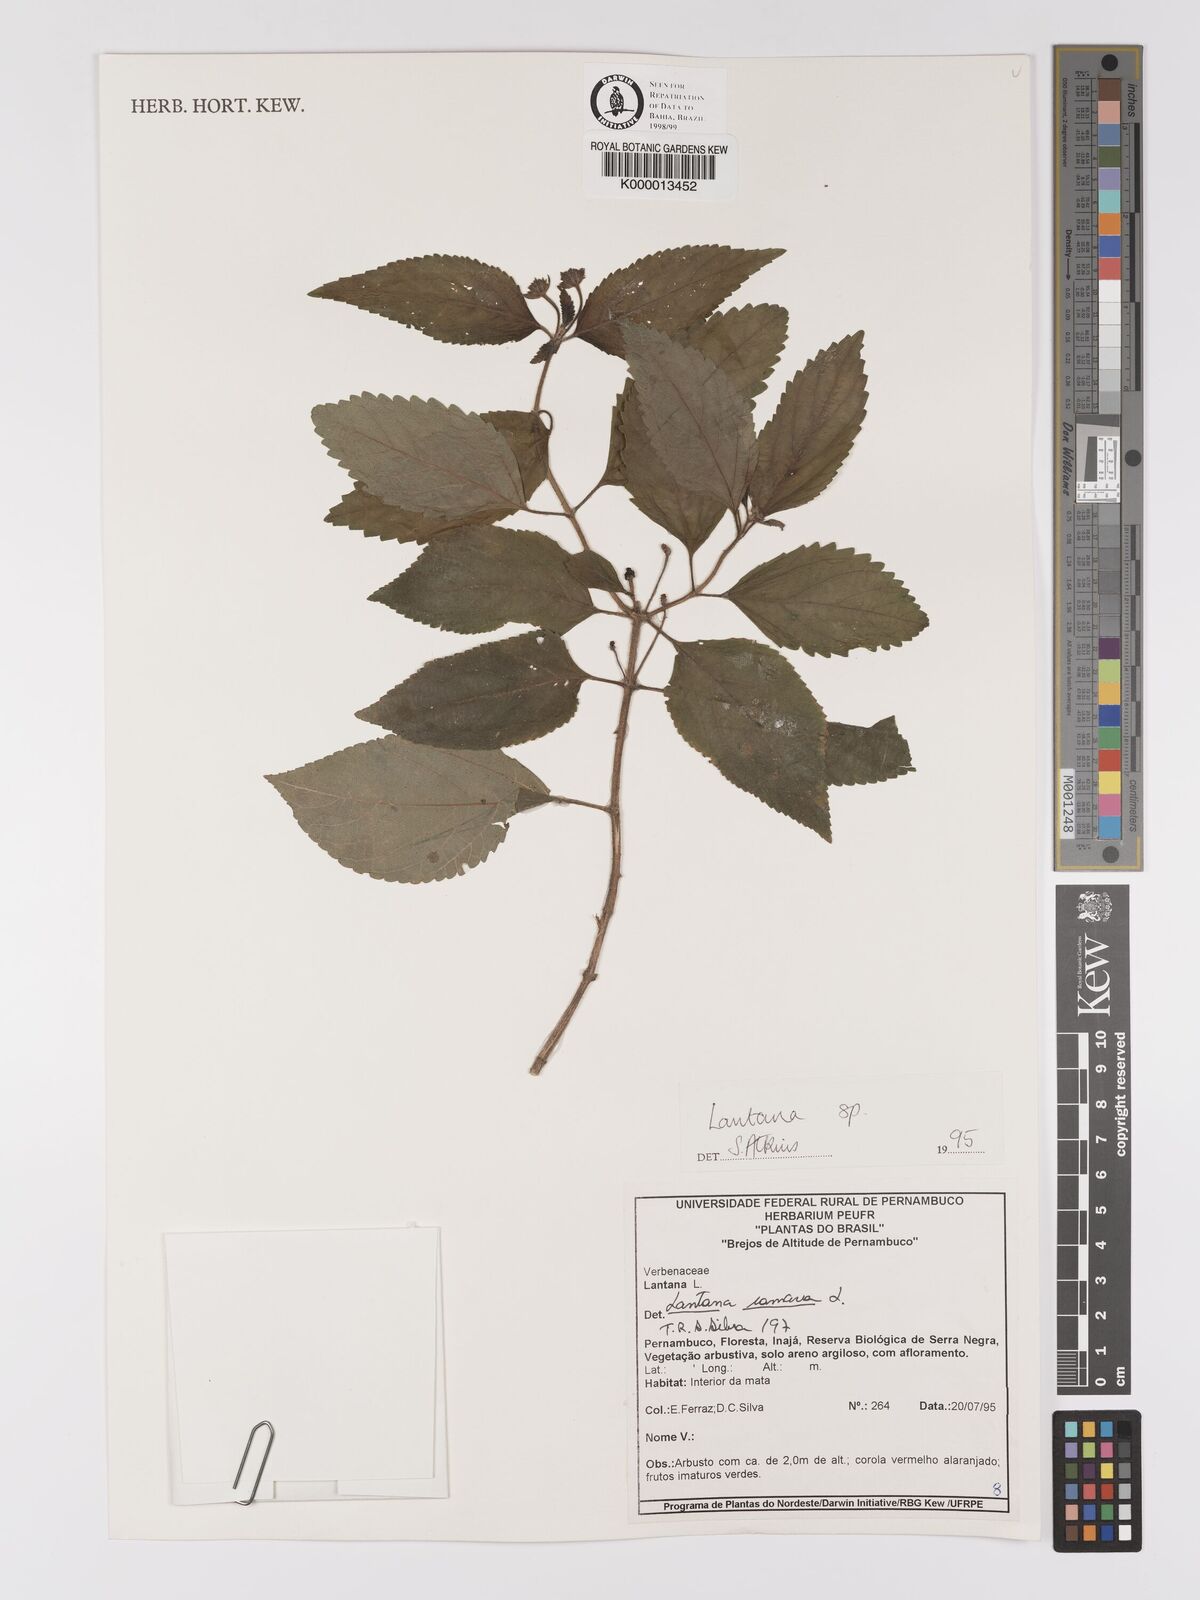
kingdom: Plantae
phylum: Tracheophyta
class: Magnoliopsida
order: Lamiales
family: Verbenaceae
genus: Lantana
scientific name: Lantana camara
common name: Lantana
